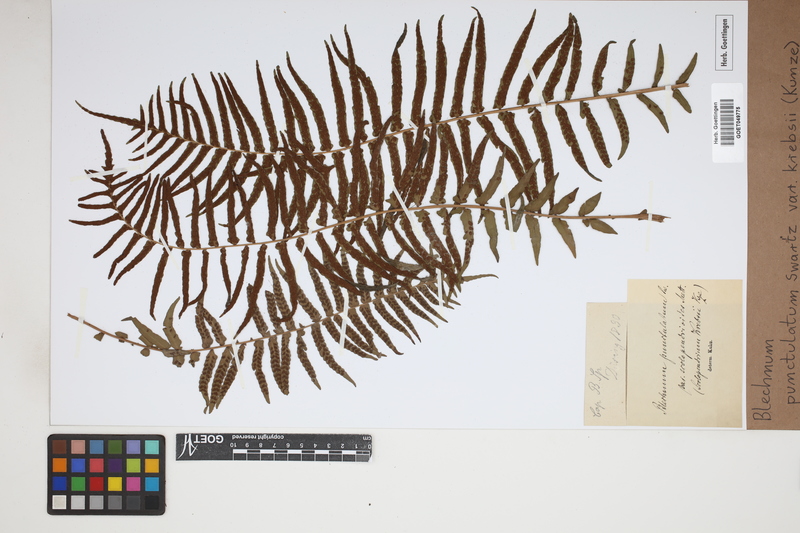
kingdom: Plantae
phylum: Tracheophyta
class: Polypodiopsida
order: Polypodiales
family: Blechnaceae
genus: Blechnum
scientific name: Blechnum punctulatum
